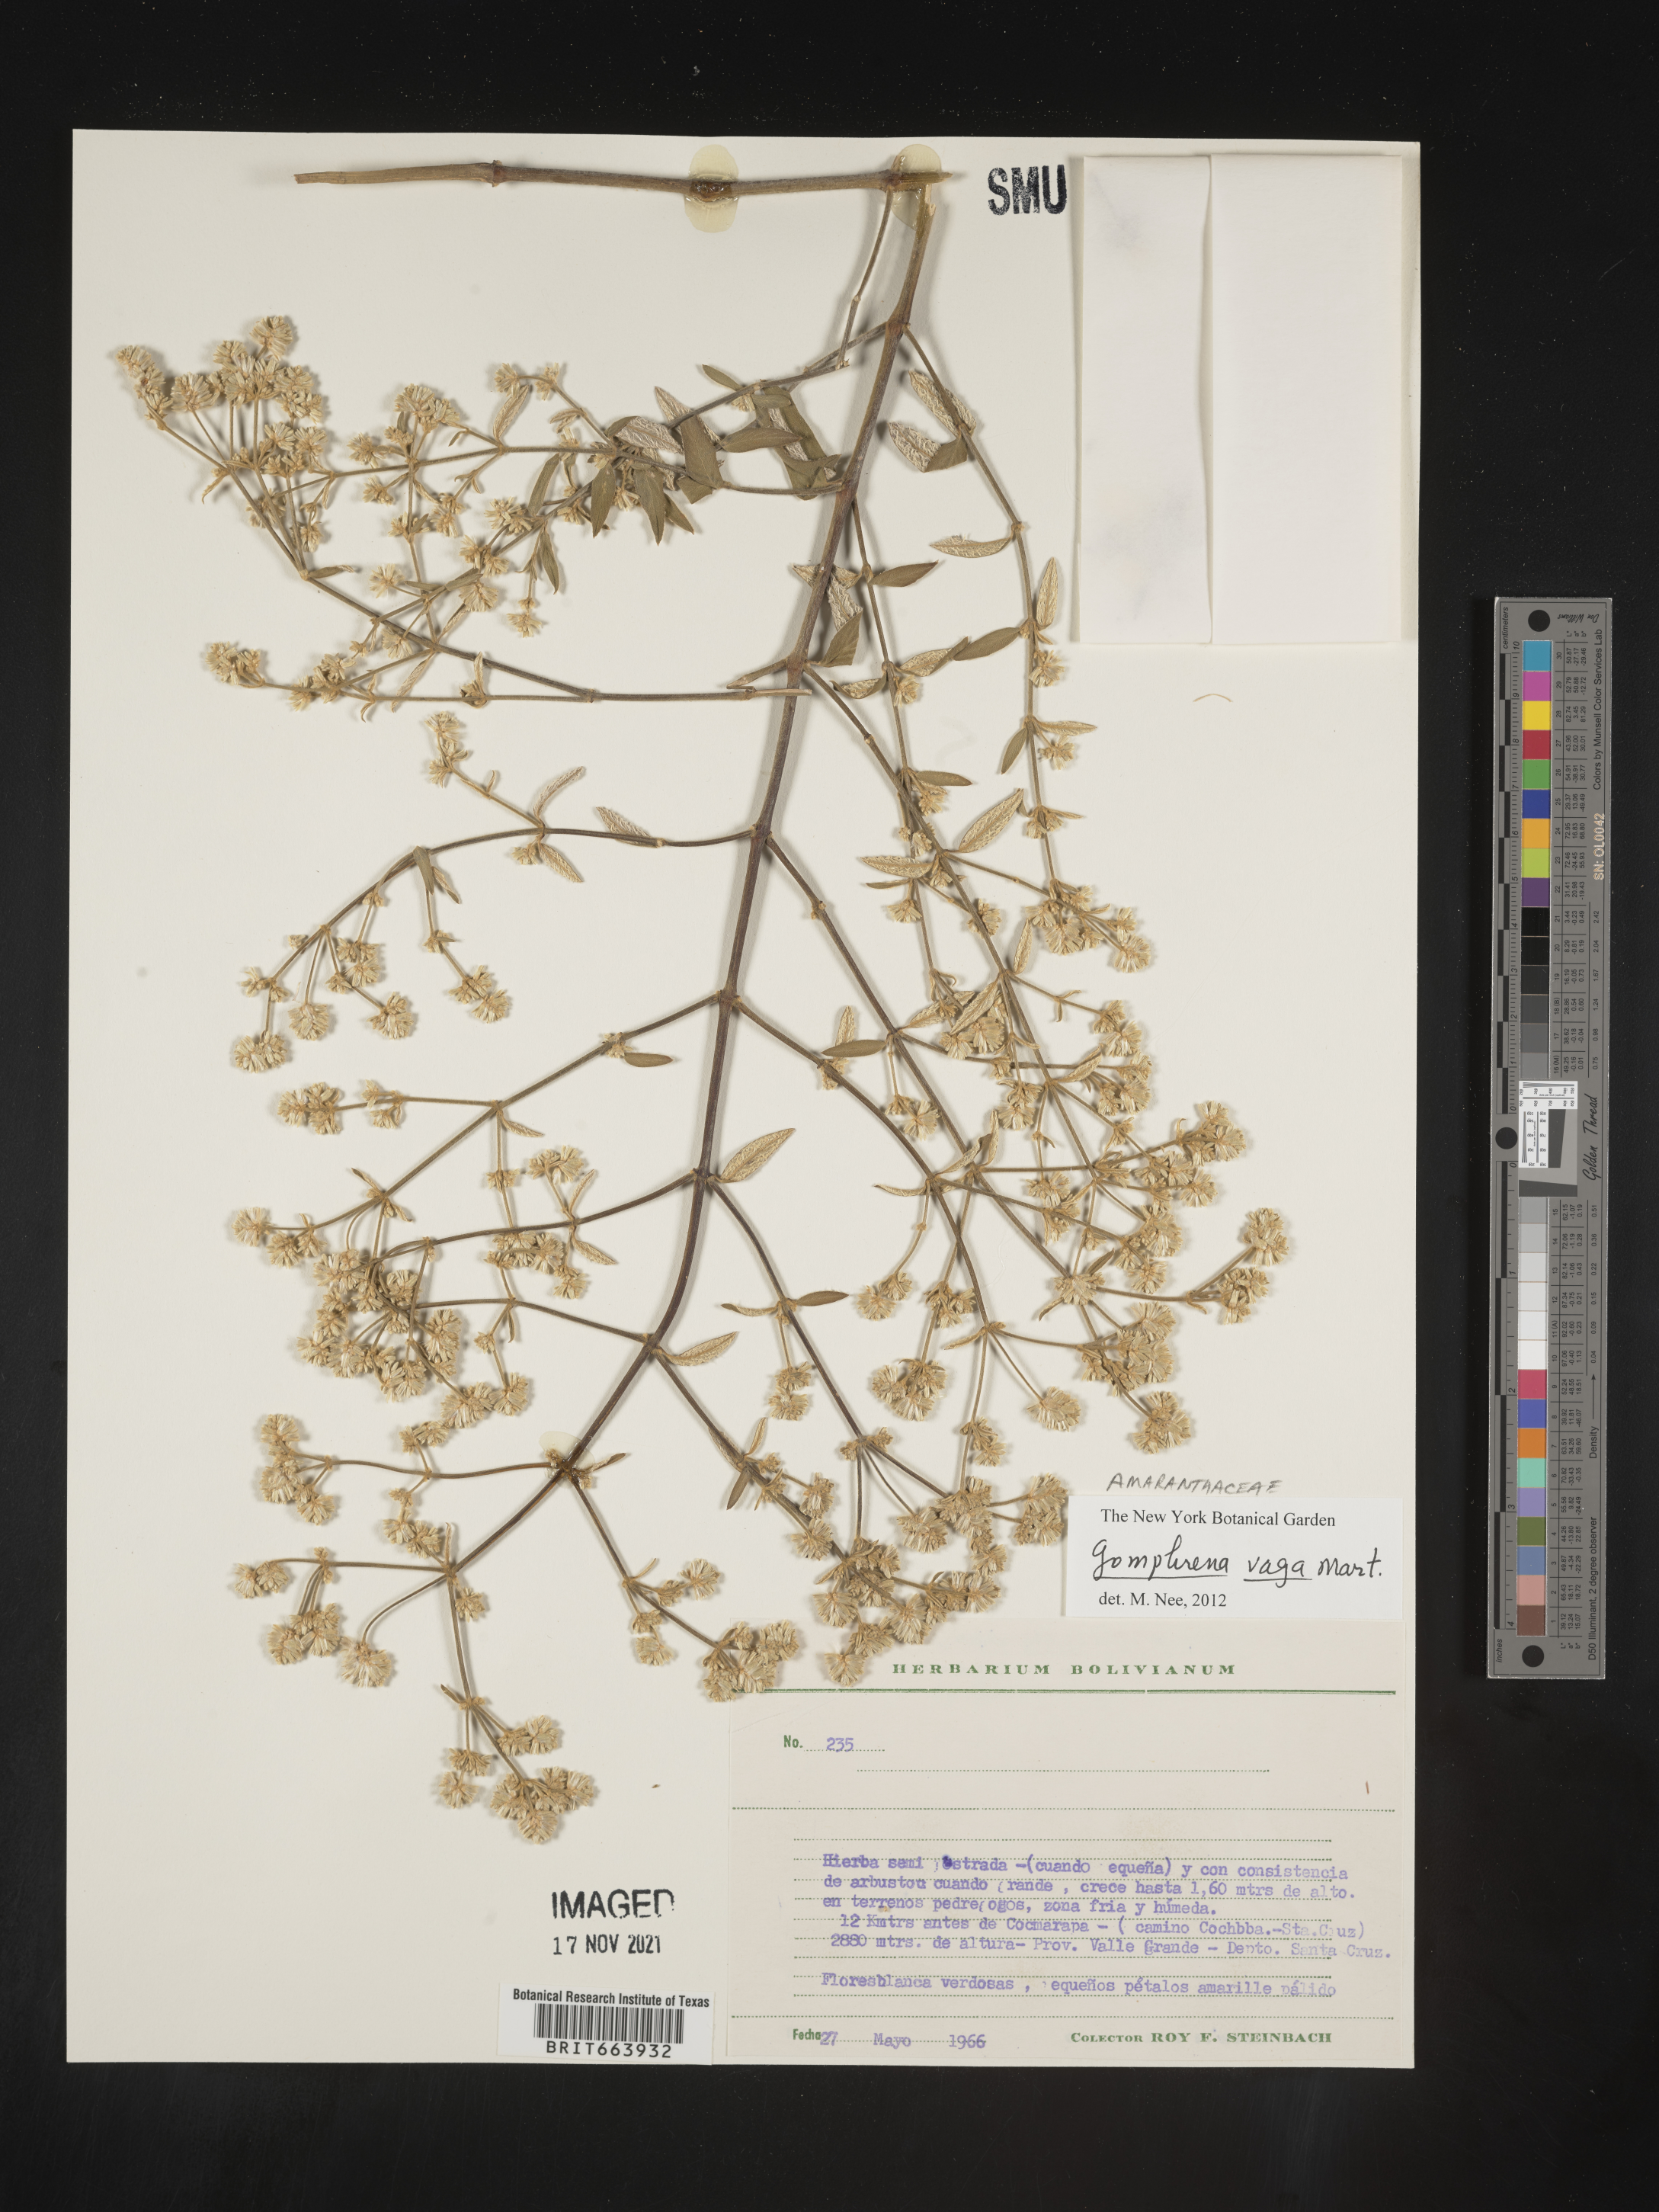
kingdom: Plantae
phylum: Tracheophyta
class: Magnoliopsida
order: Caryophyllales
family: Amaranthaceae
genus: Gomphrena
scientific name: Gomphrena
